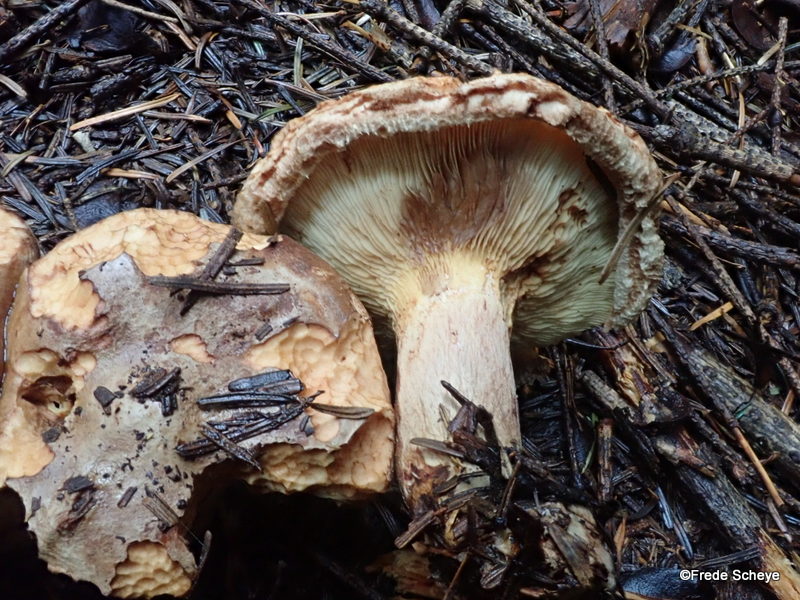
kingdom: Fungi
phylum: Basidiomycota
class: Agaricomycetes
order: Boletales
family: Paxillaceae
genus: Paxillus
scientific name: Paxillus involutus
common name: almindelig netbladhat
